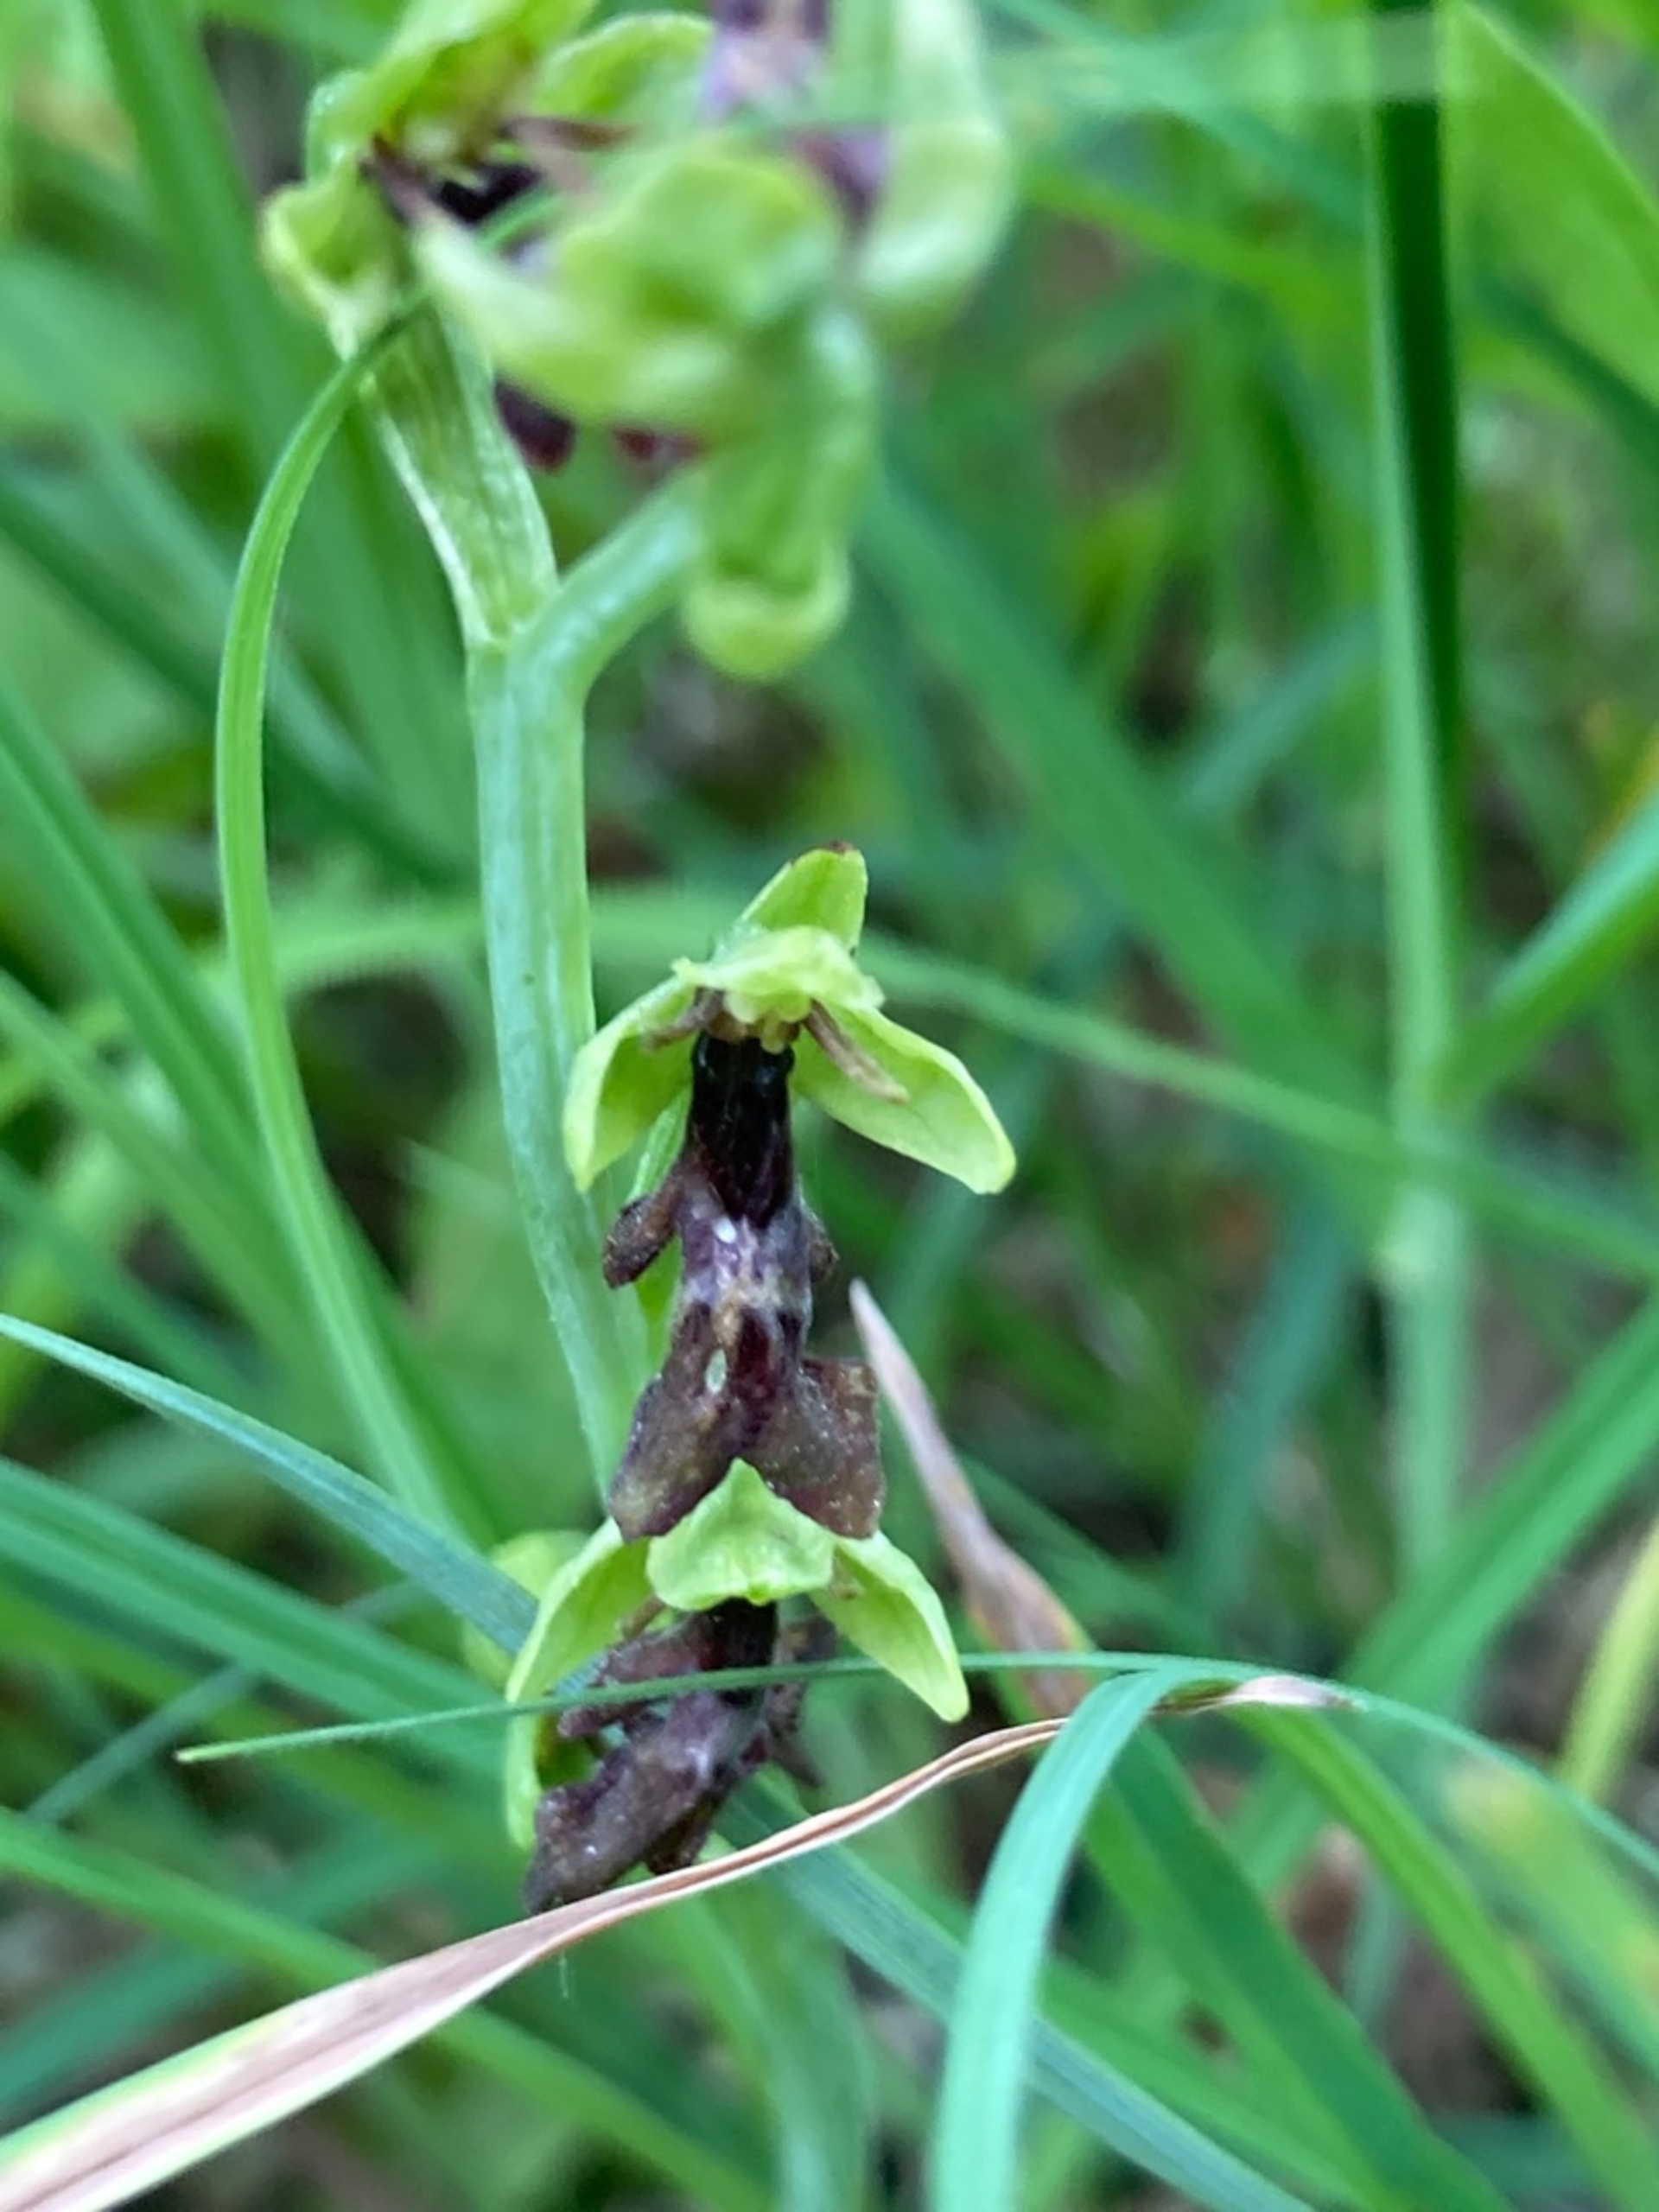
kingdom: Plantae
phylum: Tracheophyta
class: Liliopsida
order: Asparagales
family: Orchidaceae
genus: Ophrys
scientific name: Ophrys insectifera
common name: Flueblomst
